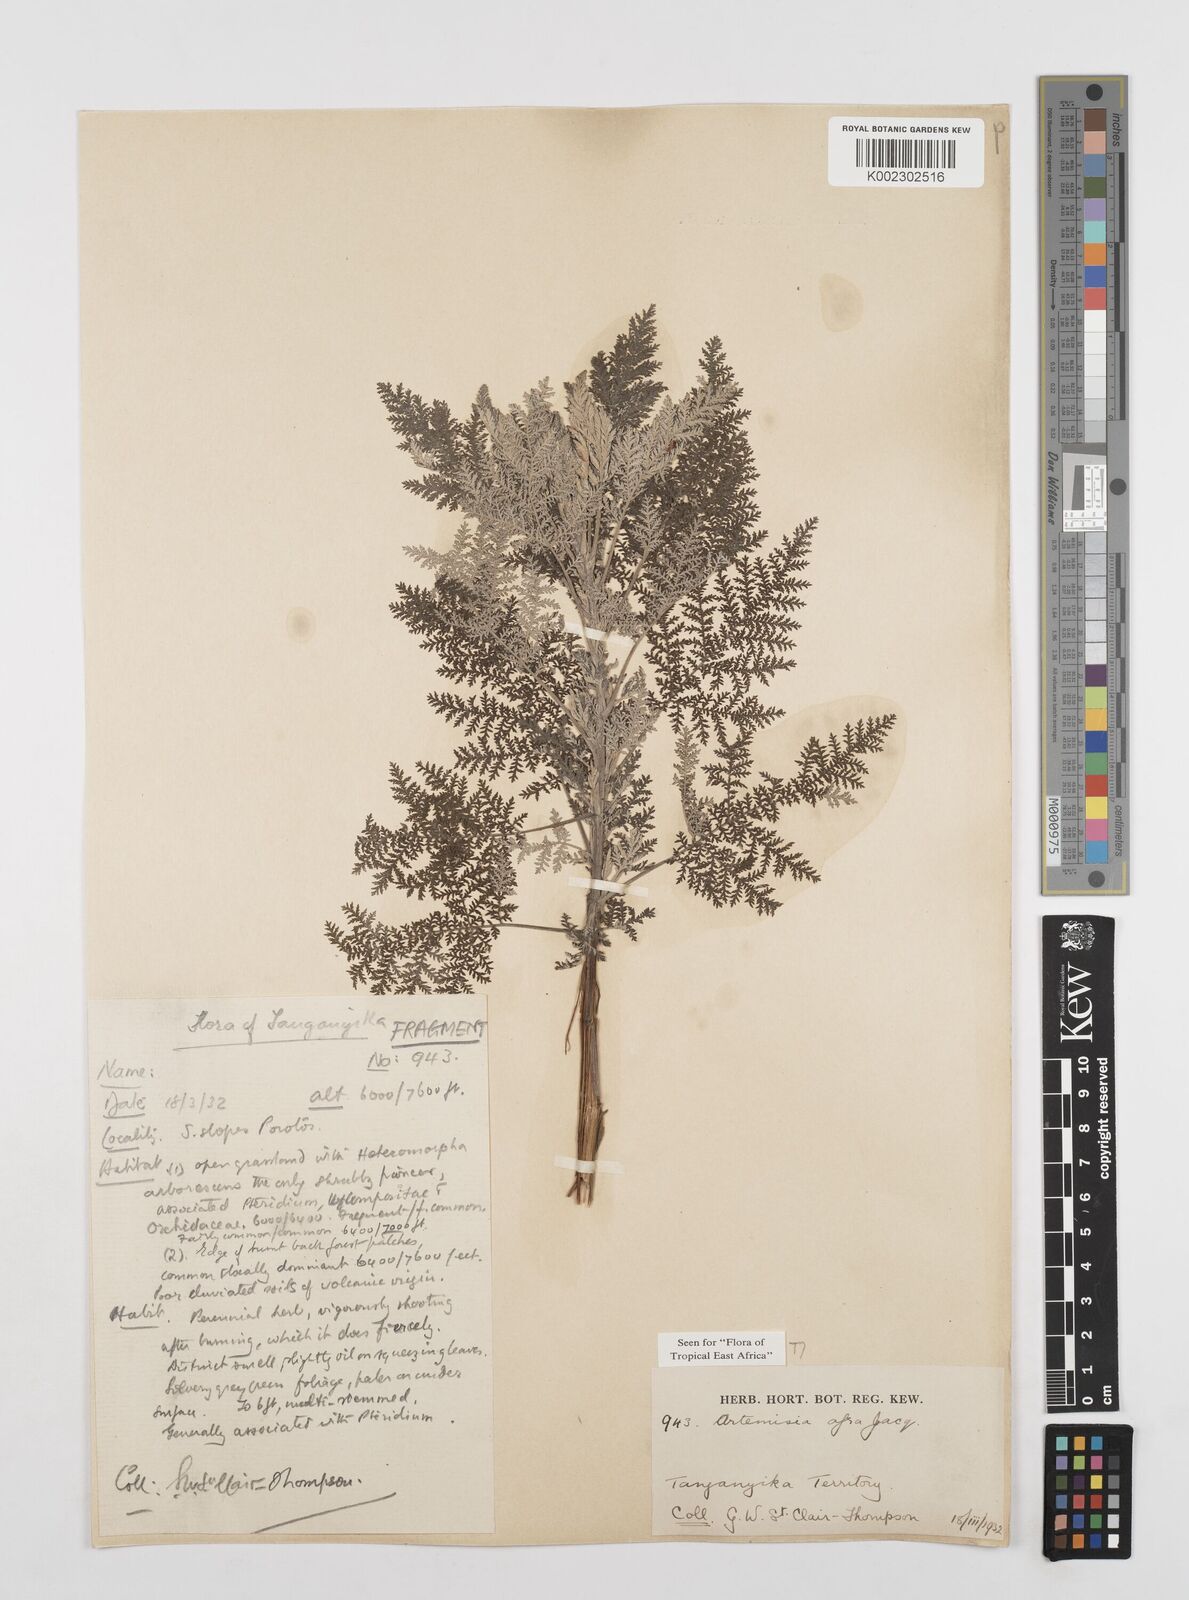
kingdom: Plantae
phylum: Tracheophyta
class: Magnoliopsida
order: Asterales
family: Asteraceae
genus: Artemisia
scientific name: Artemisia afra
